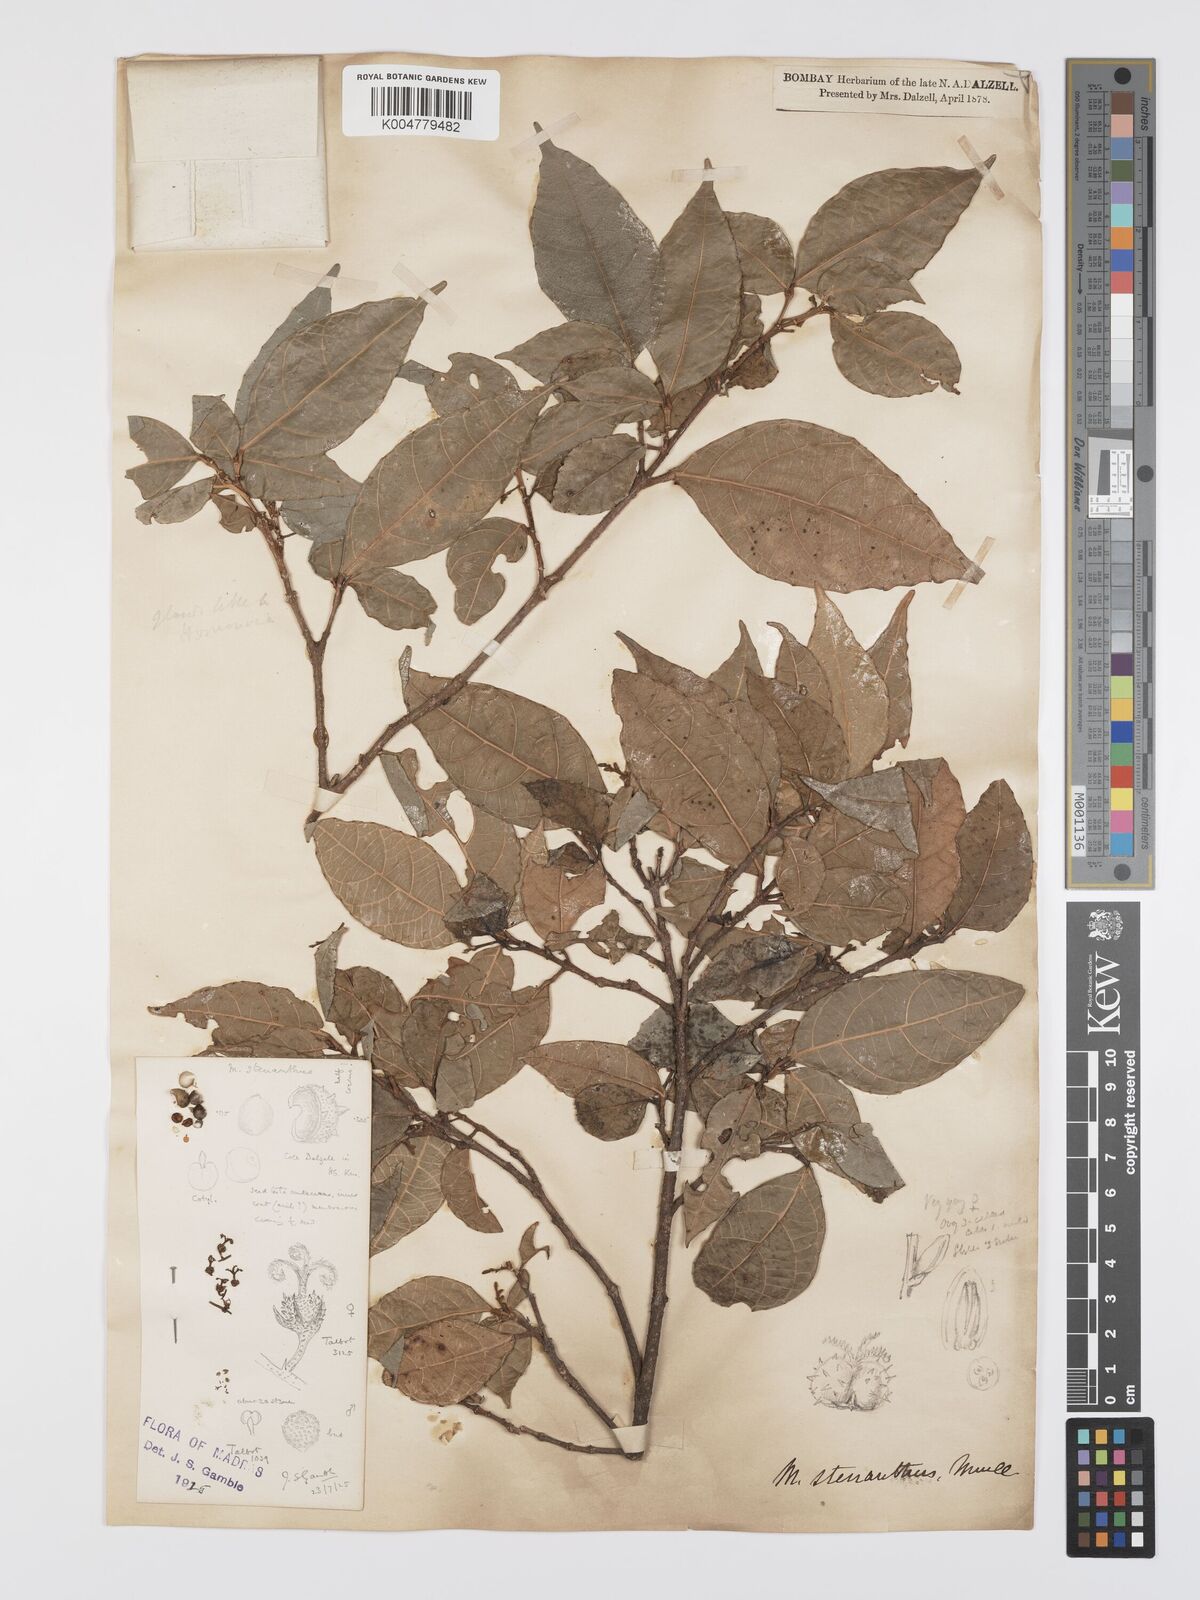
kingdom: Plantae
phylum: Tracheophyta
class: Magnoliopsida
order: Malpighiales
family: Euphorbiaceae
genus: Mallotus
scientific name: Mallotus resinosus
